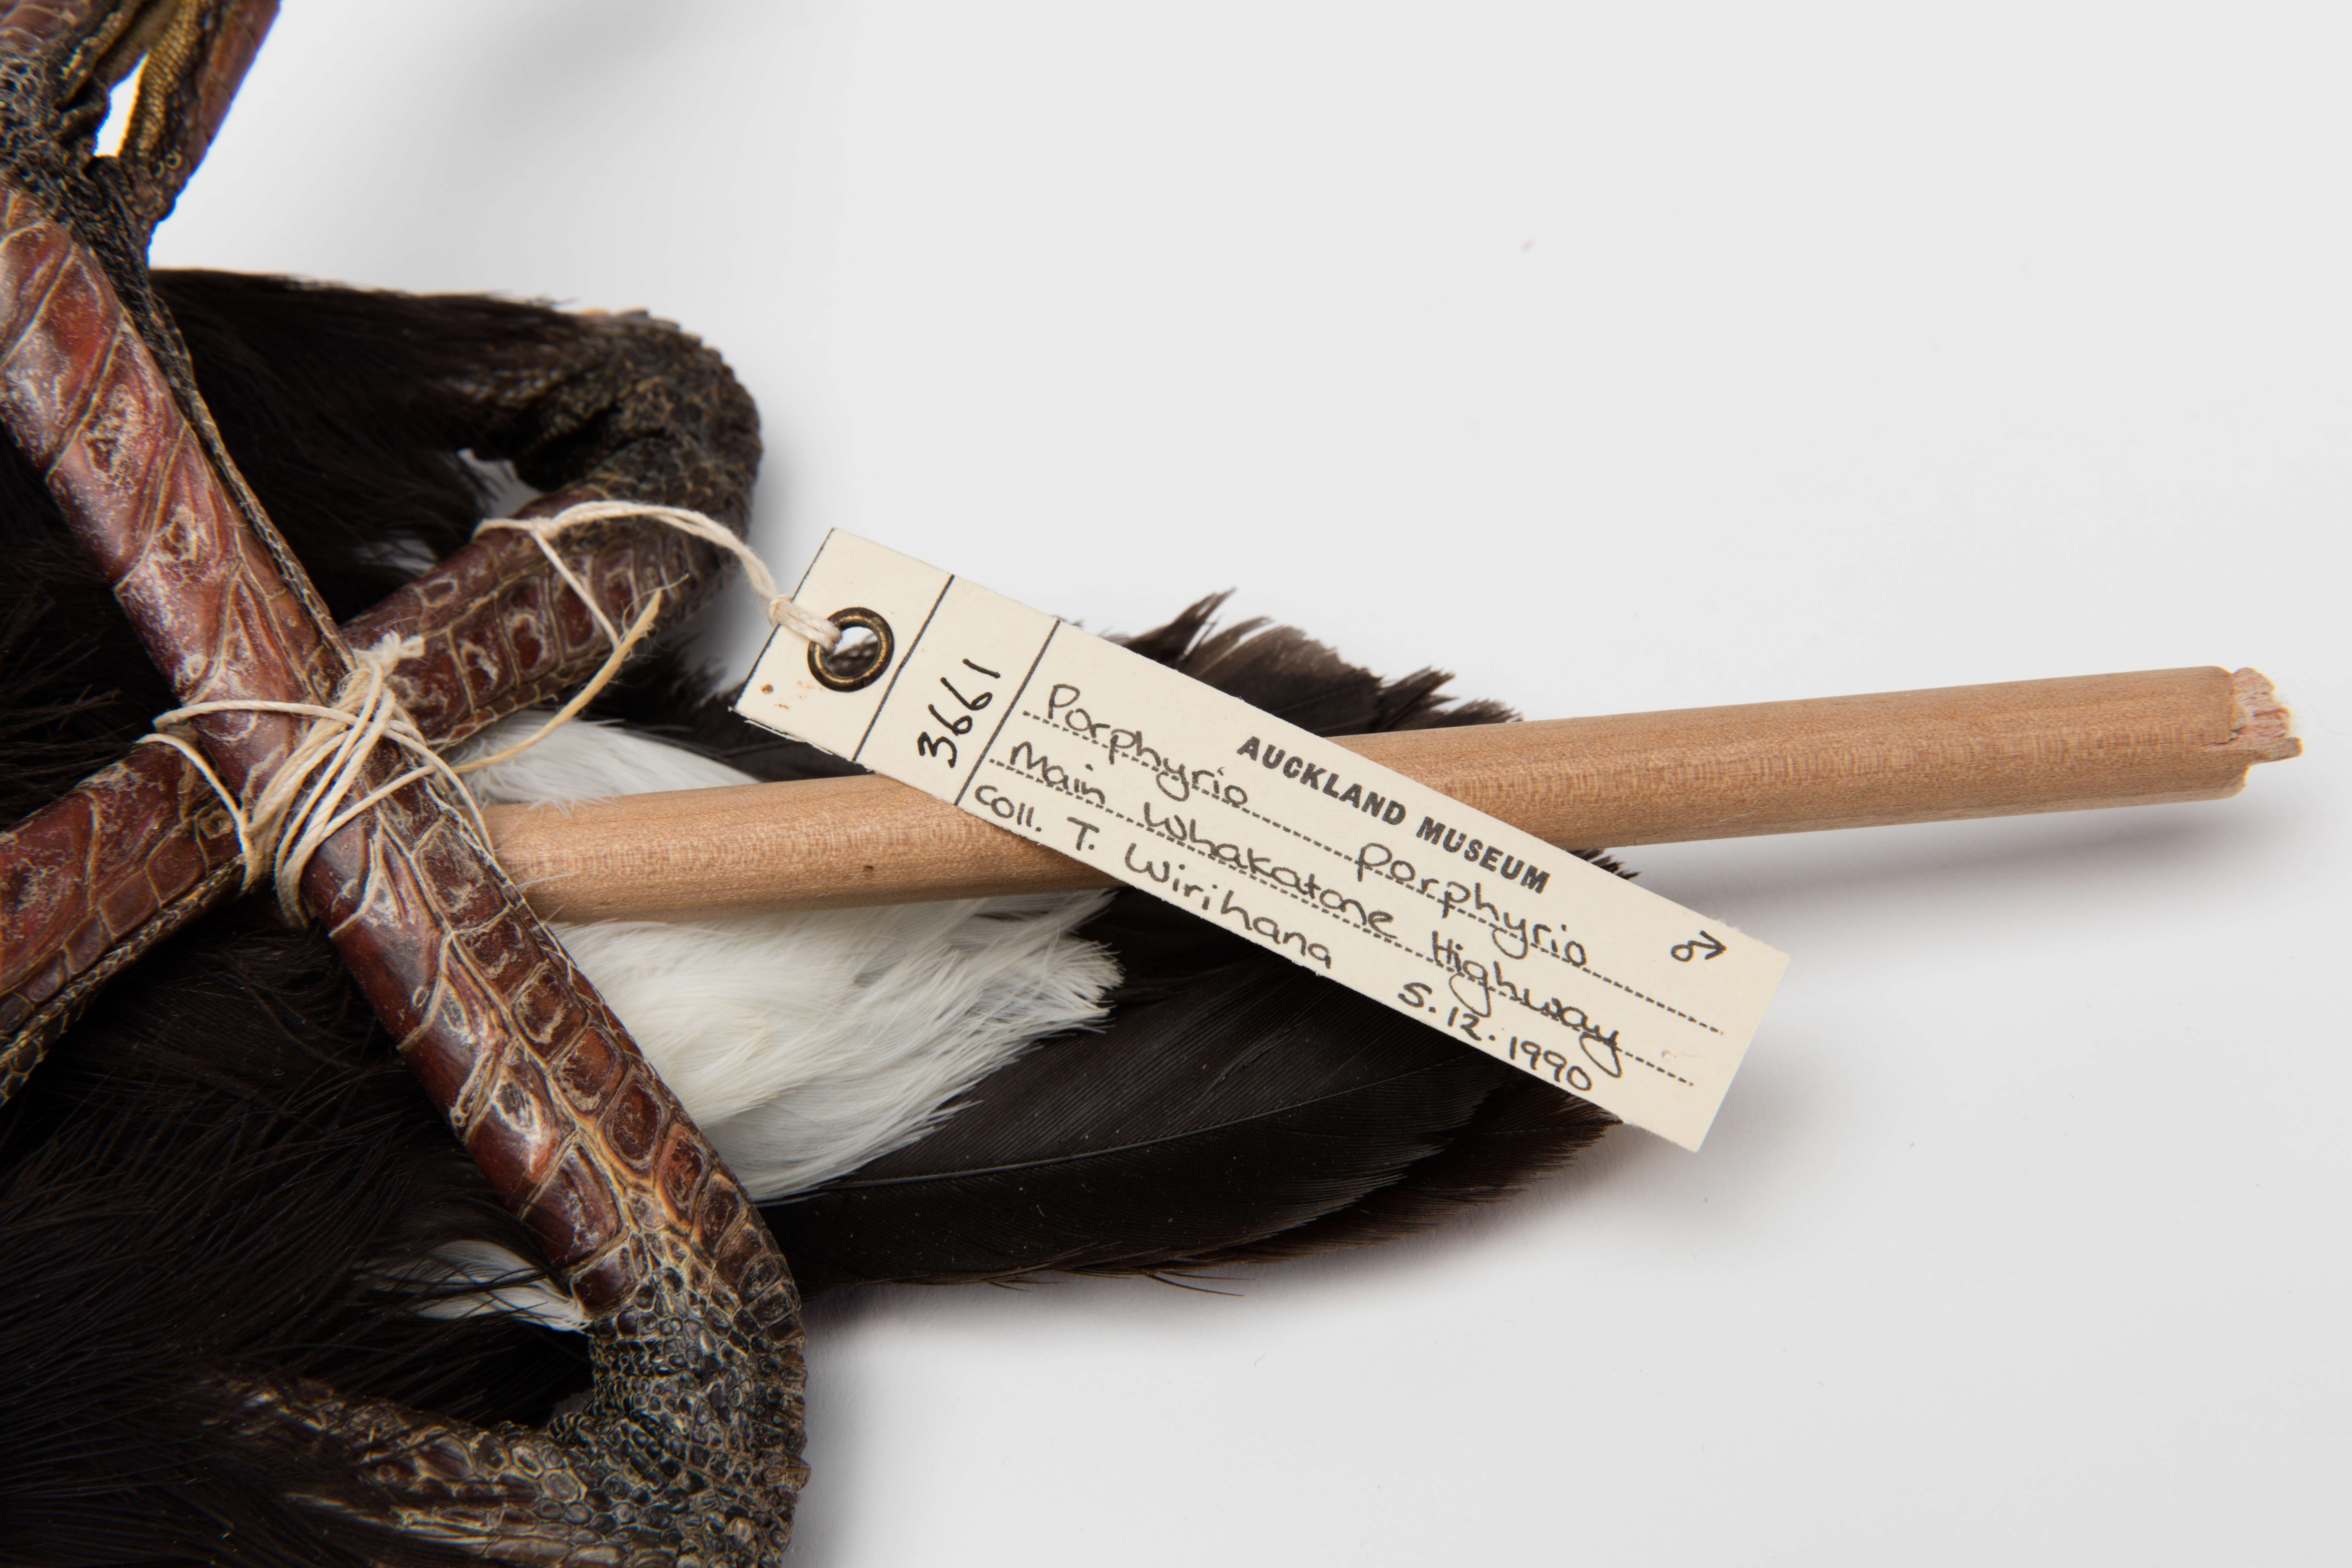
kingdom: Animalia
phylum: Chordata
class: Aves
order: Gruiformes
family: Rallidae
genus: Porphyrio
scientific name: Porphyrio melanotus
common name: Australasian swamphen
